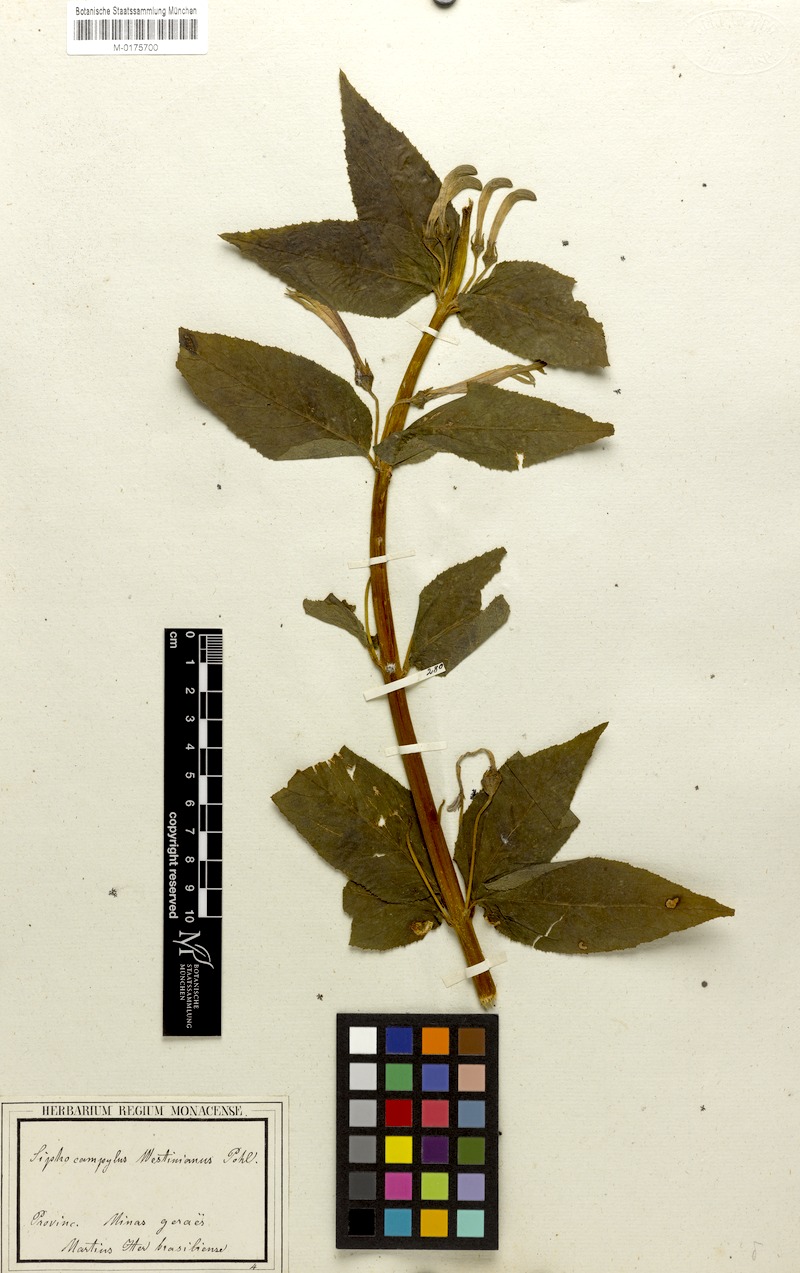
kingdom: Plantae
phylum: Tracheophyta
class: Magnoliopsida
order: Asterales
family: Campanulaceae
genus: Siphocampylus
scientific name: Siphocampylus westinianus
